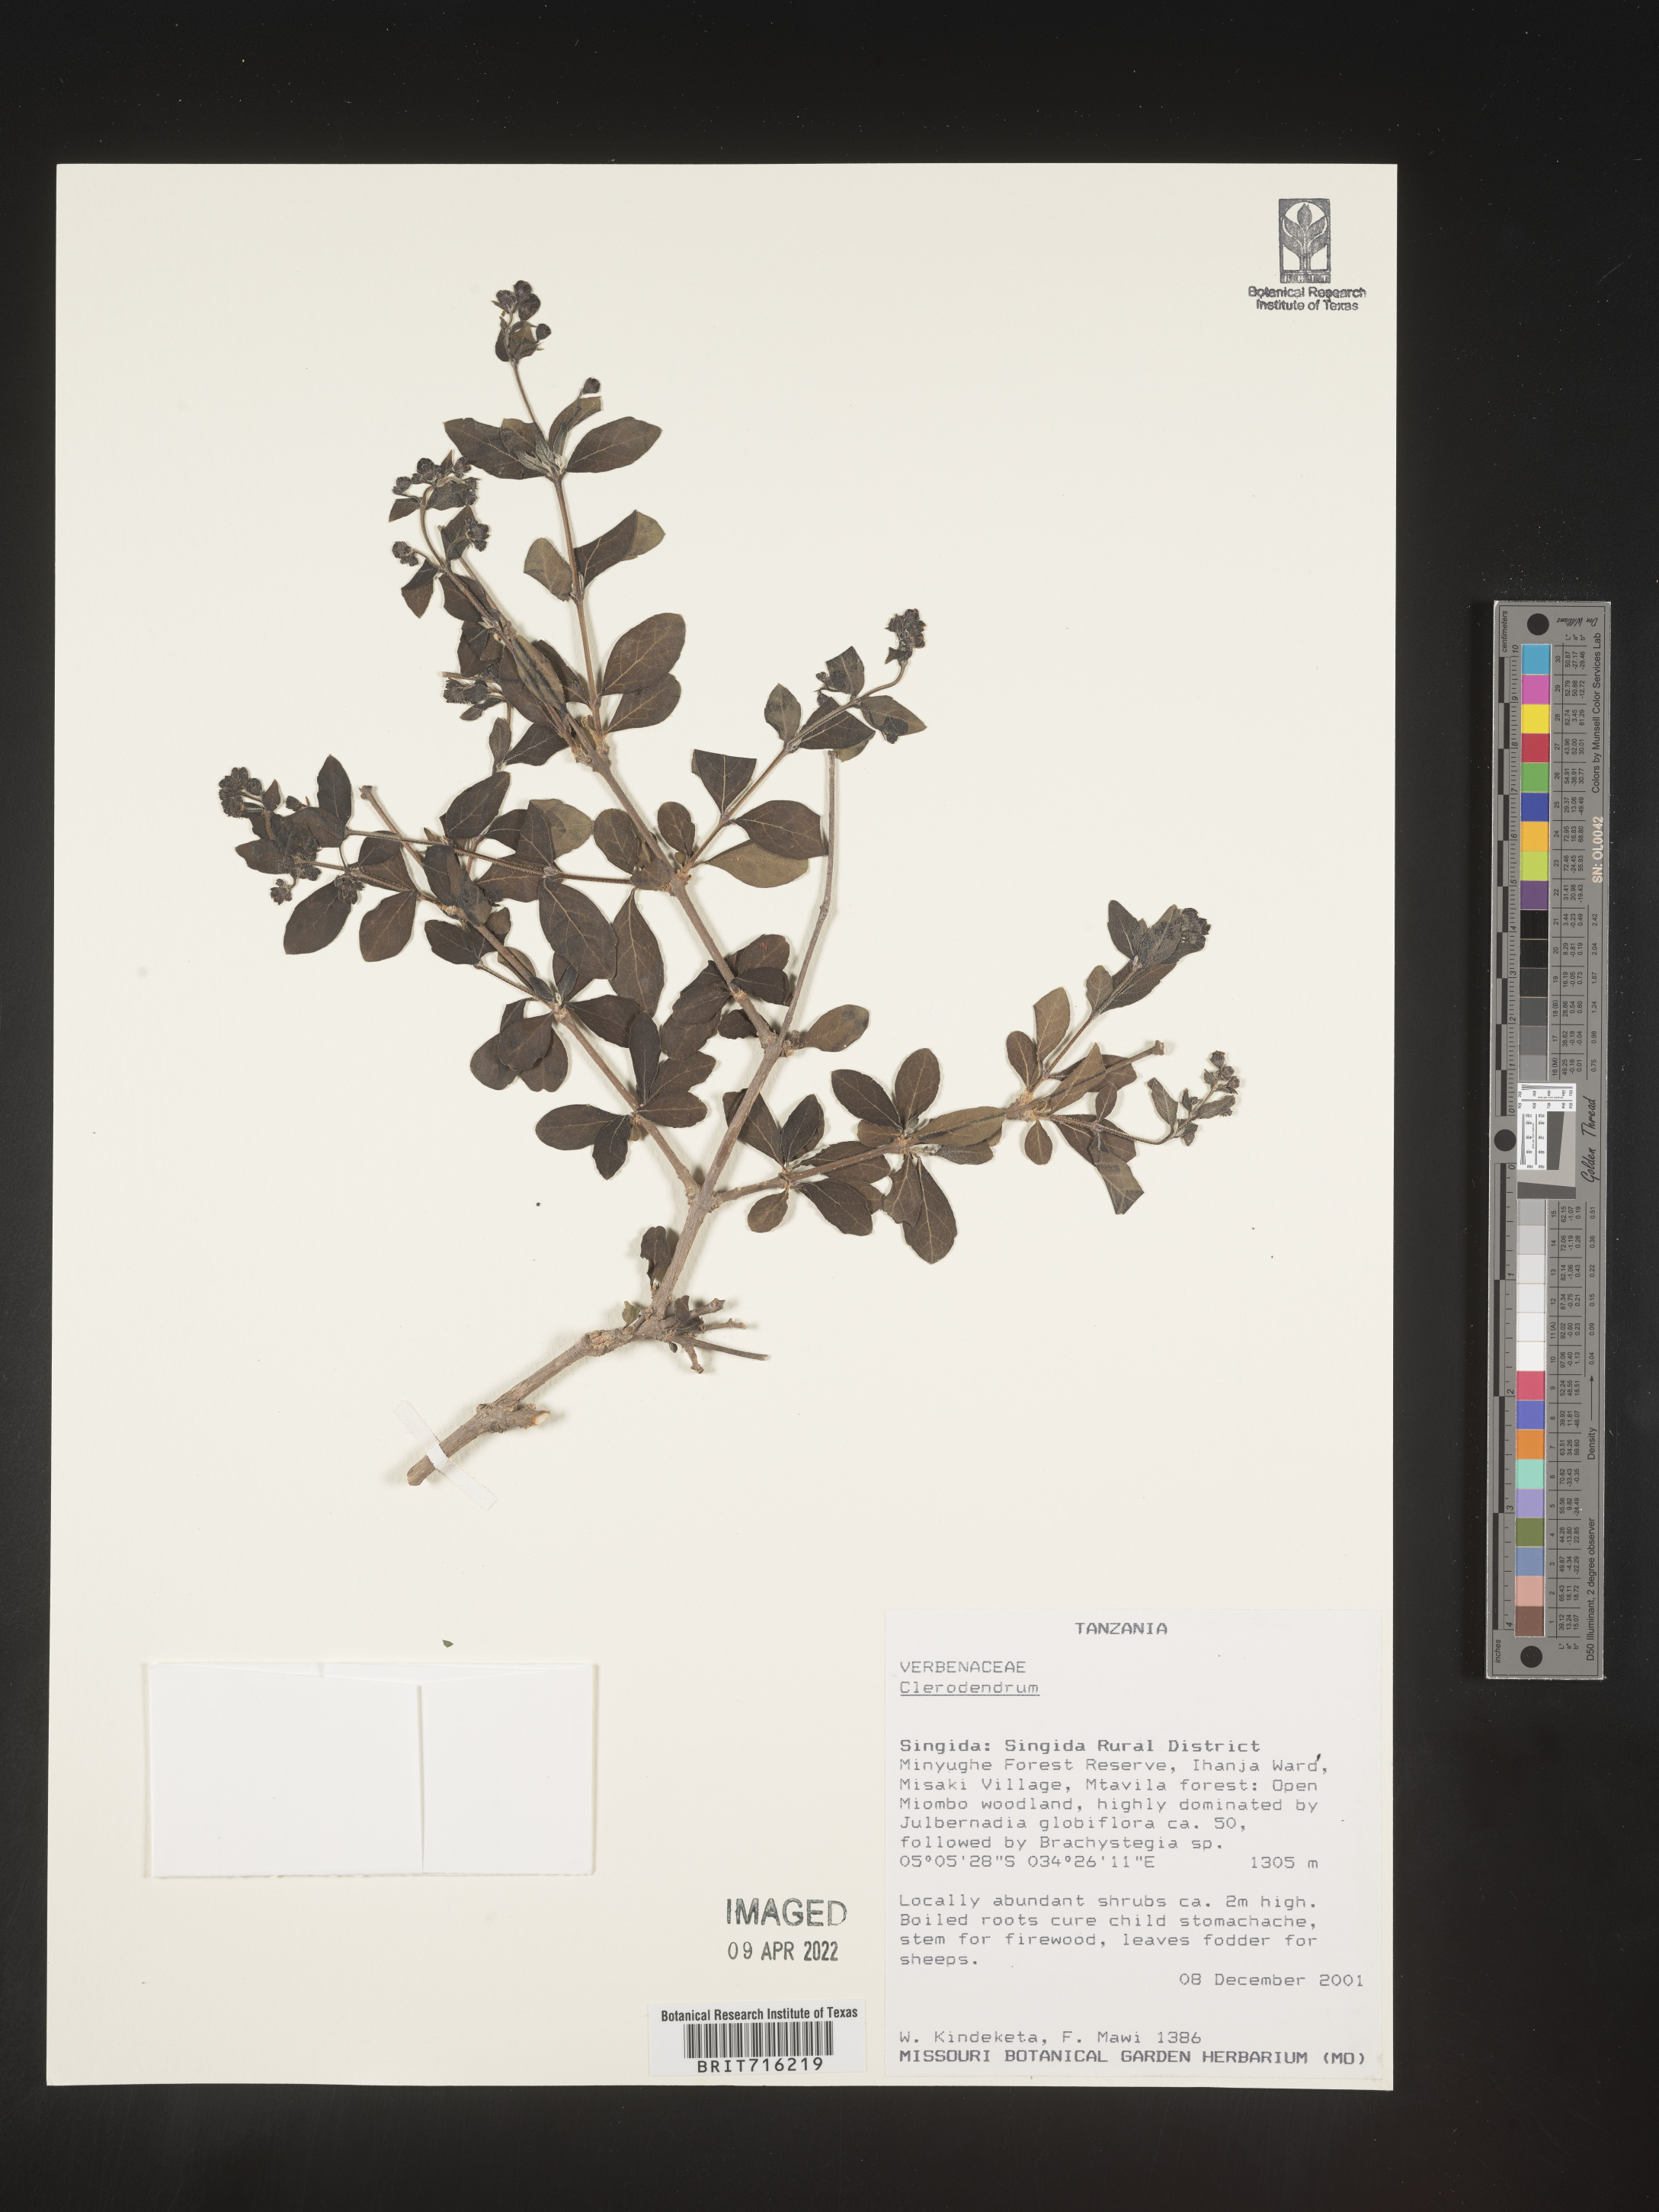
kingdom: Plantae
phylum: Tracheophyta
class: Magnoliopsida
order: Lamiales
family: Lamiaceae
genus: Clerodendrum
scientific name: Clerodendrum
